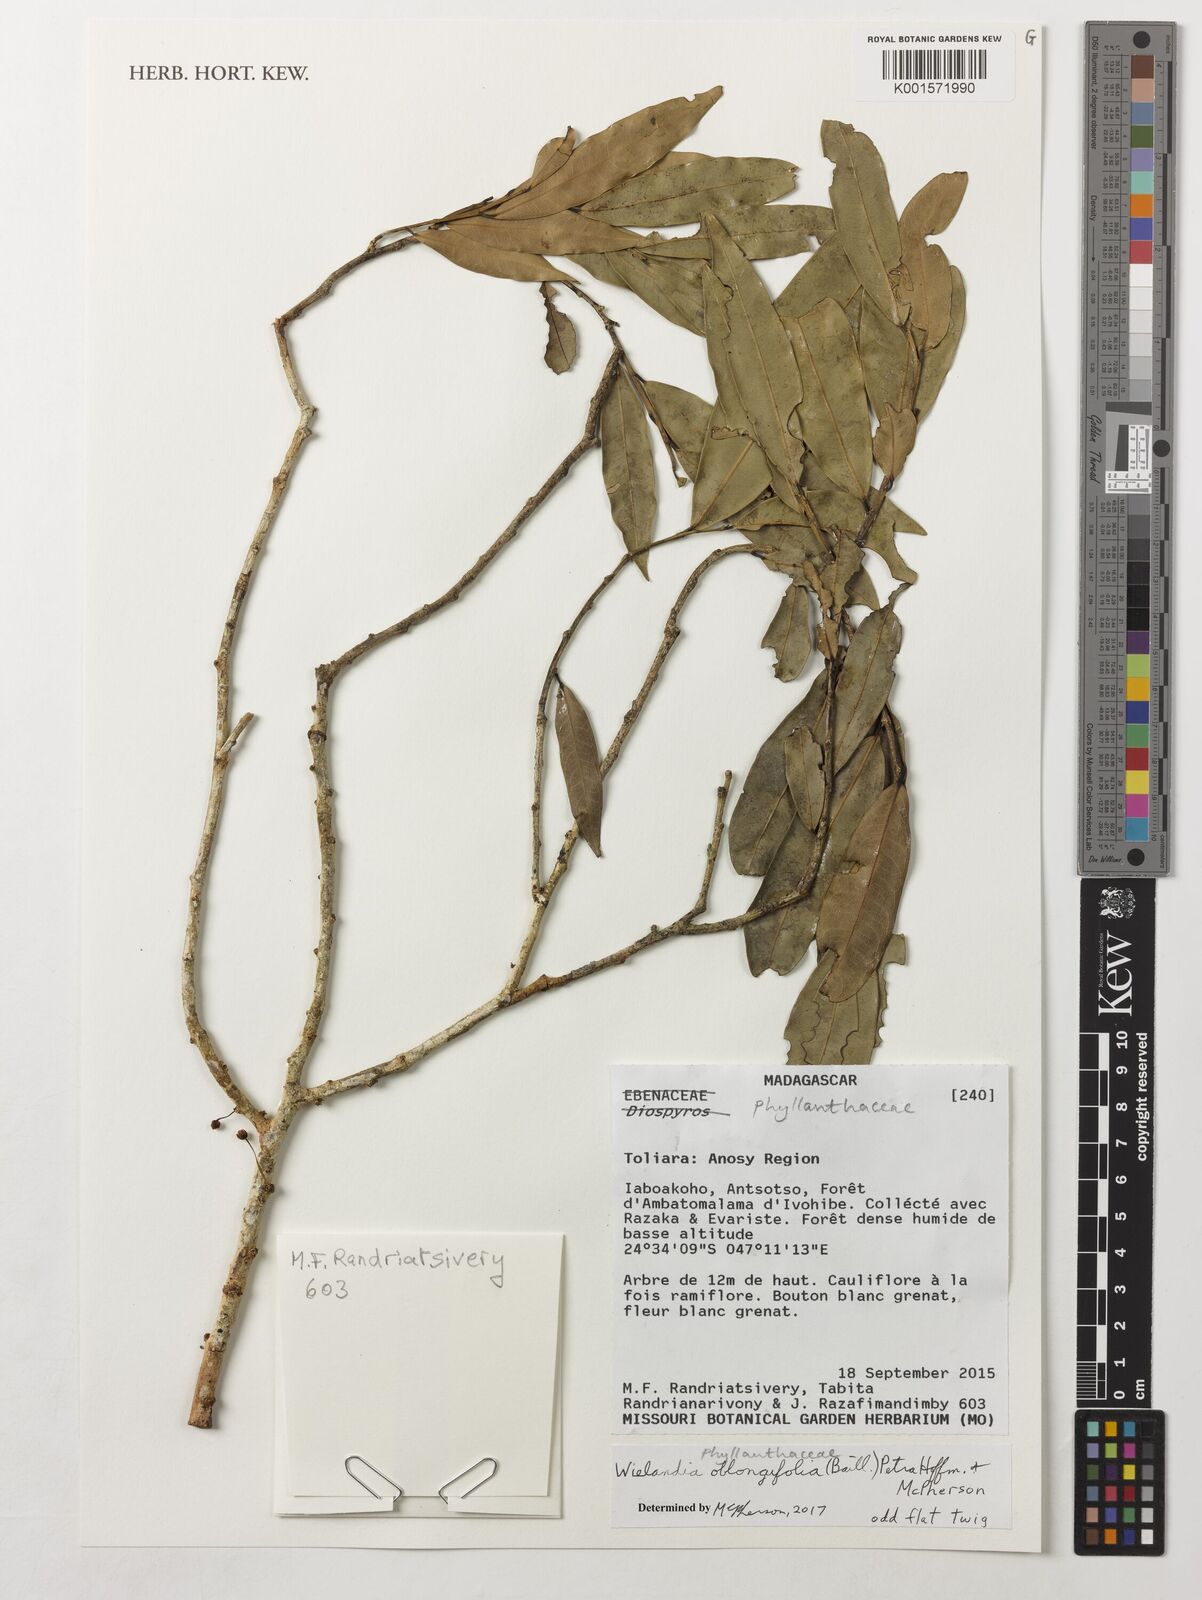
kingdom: Plantae
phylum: Tracheophyta
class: Magnoliopsida
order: Malpighiales
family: Phyllanthaceae
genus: Wielandia
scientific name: Wielandia oblongifolia
